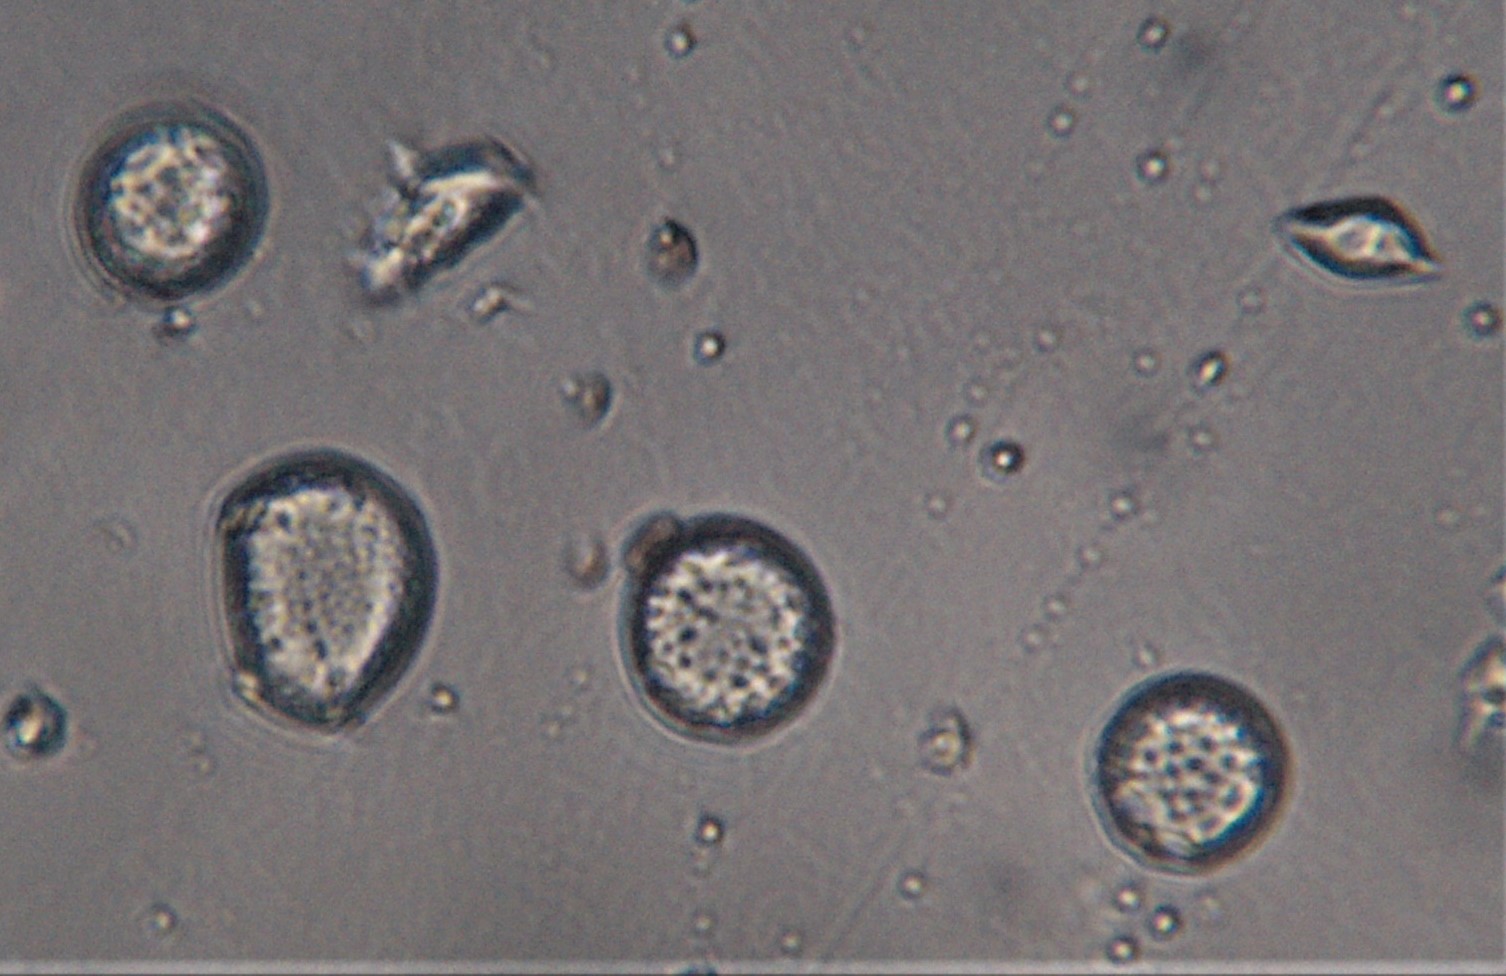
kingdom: Fungi
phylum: Basidiomycota
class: Agaricomycetes
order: Agaricales
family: Psathyrellaceae
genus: Coprinellus
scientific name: Coprinellus
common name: blækhat
